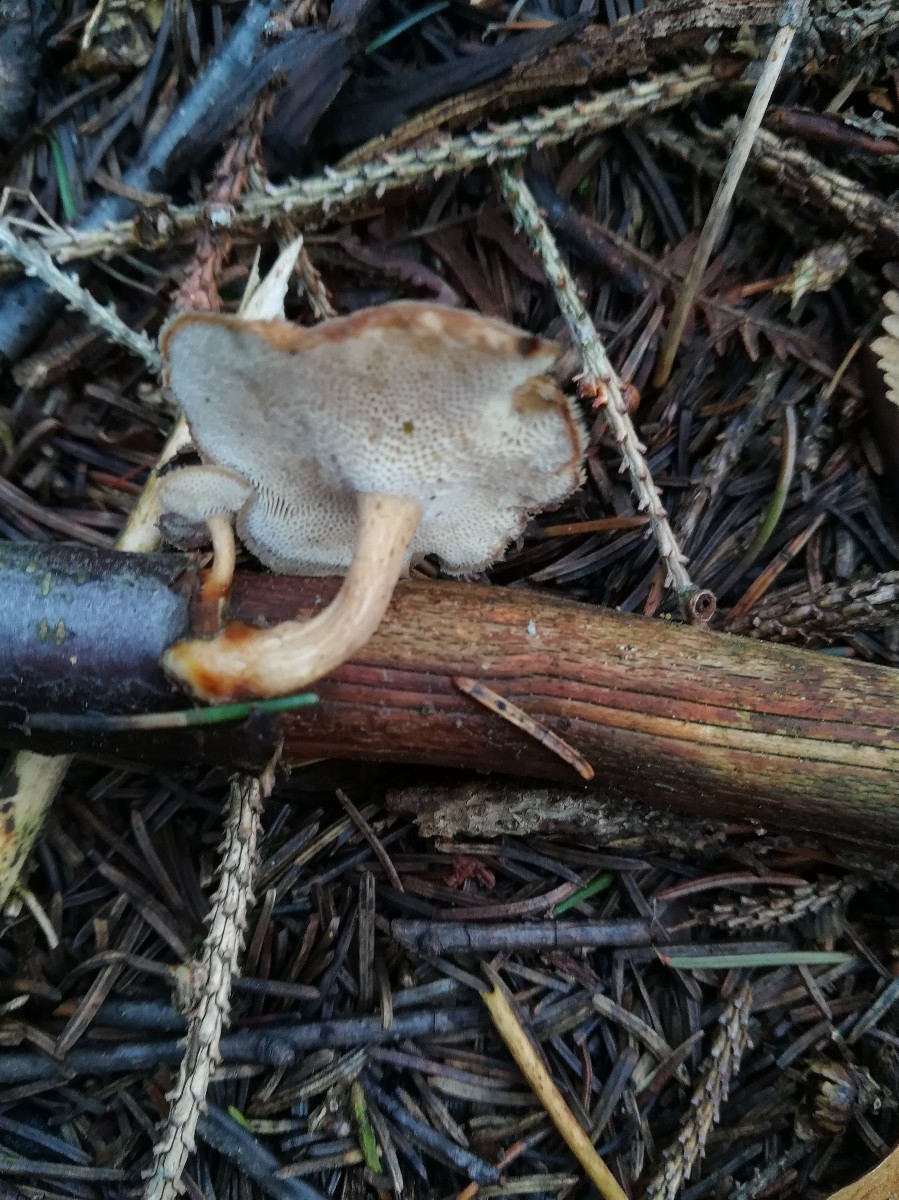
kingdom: Fungi
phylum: Basidiomycota
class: Agaricomycetes
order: Polyporales
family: Polyporaceae
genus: Lentinus
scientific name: Lentinus brumalis
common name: vinter-stilkporesvamp
